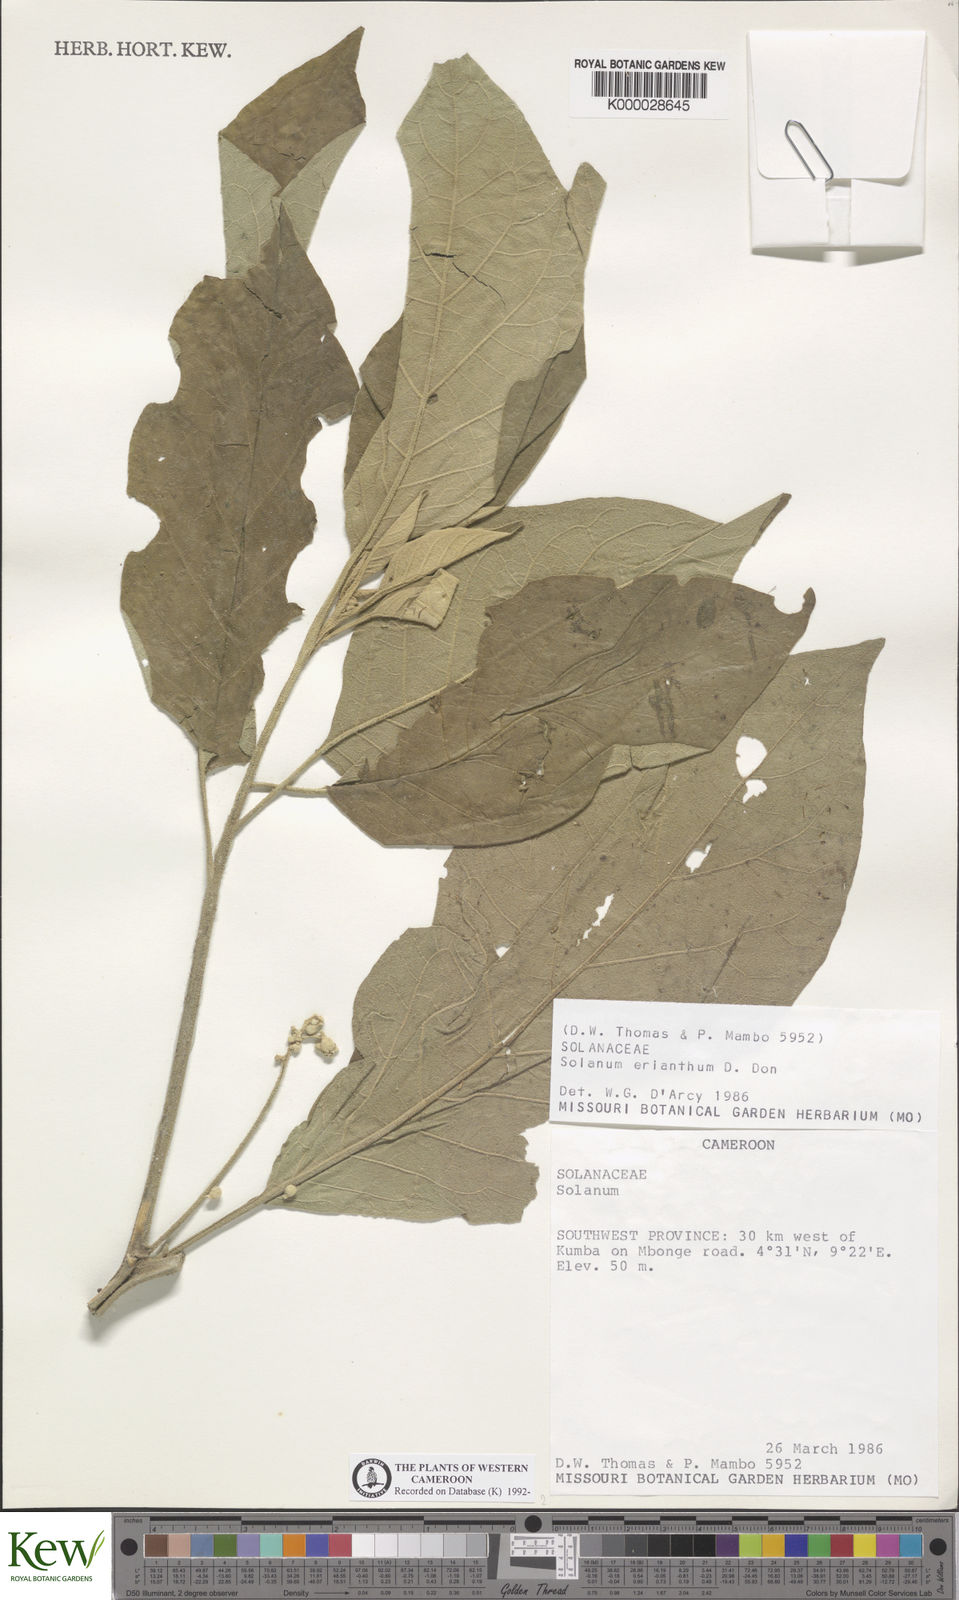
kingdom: Plantae
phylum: Tracheophyta
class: Magnoliopsida
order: Solanales
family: Solanaceae
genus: Solanum
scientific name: Solanum erianthum
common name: Tobacco-tree
